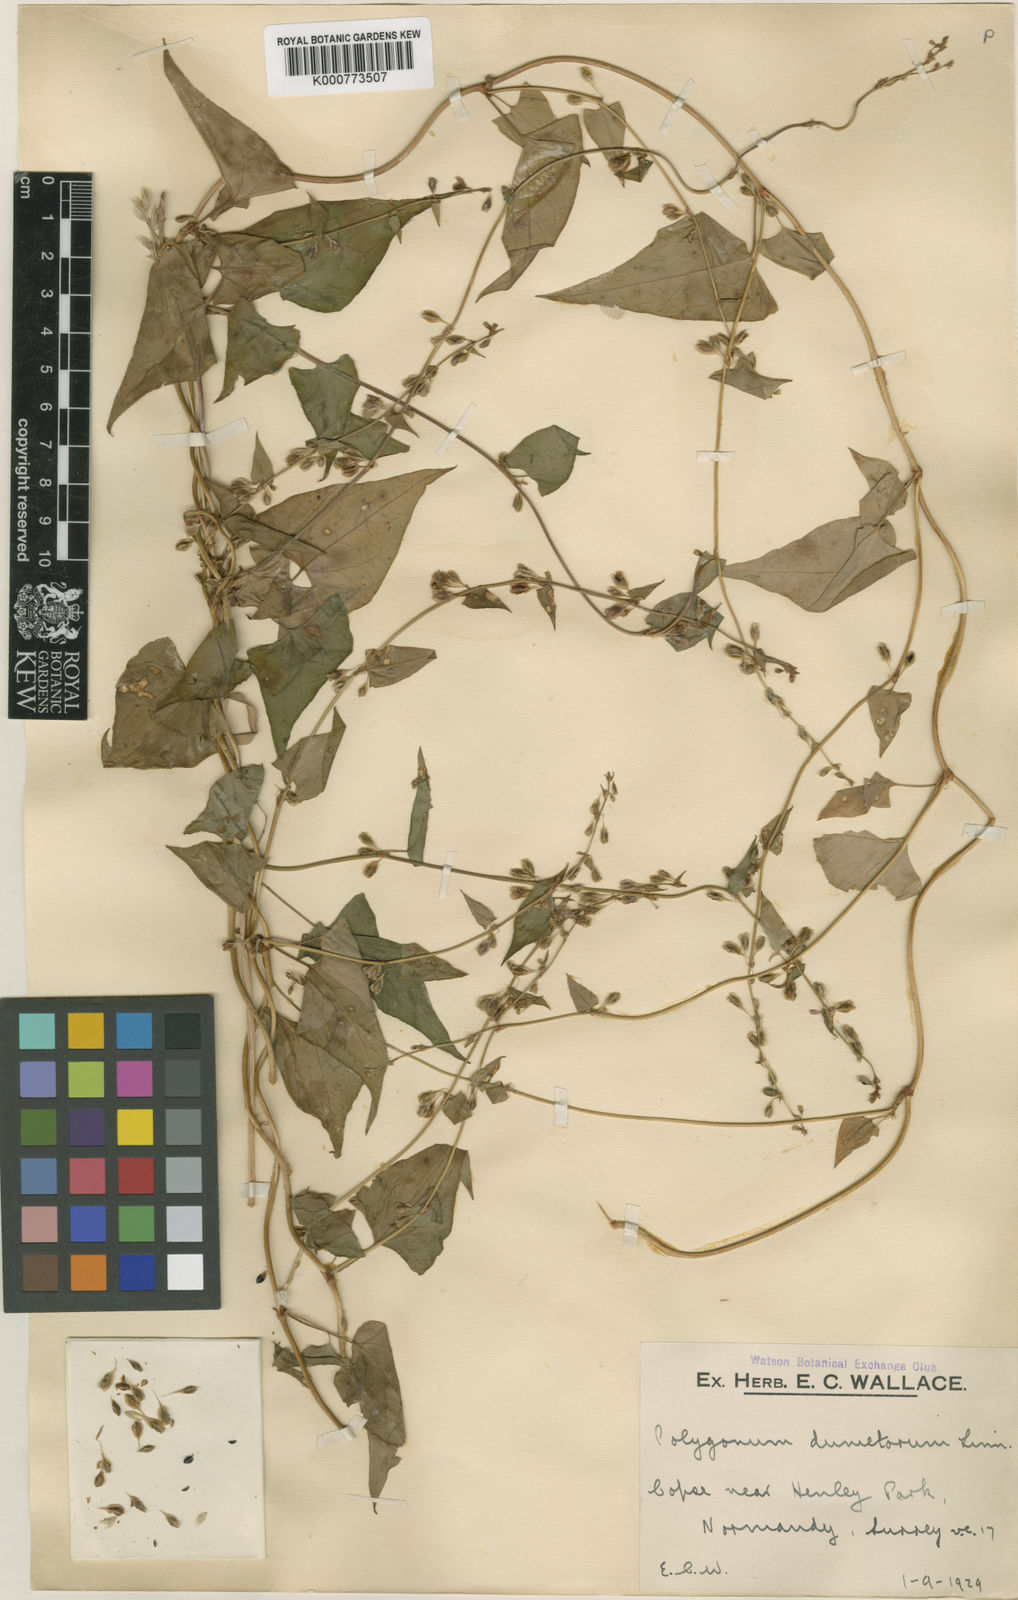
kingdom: Plantae
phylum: Tracheophyta
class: Magnoliopsida
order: Caryophyllales
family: Polygonaceae
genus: Fallopia
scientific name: Fallopia dumetorum
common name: Copse-bindweed
